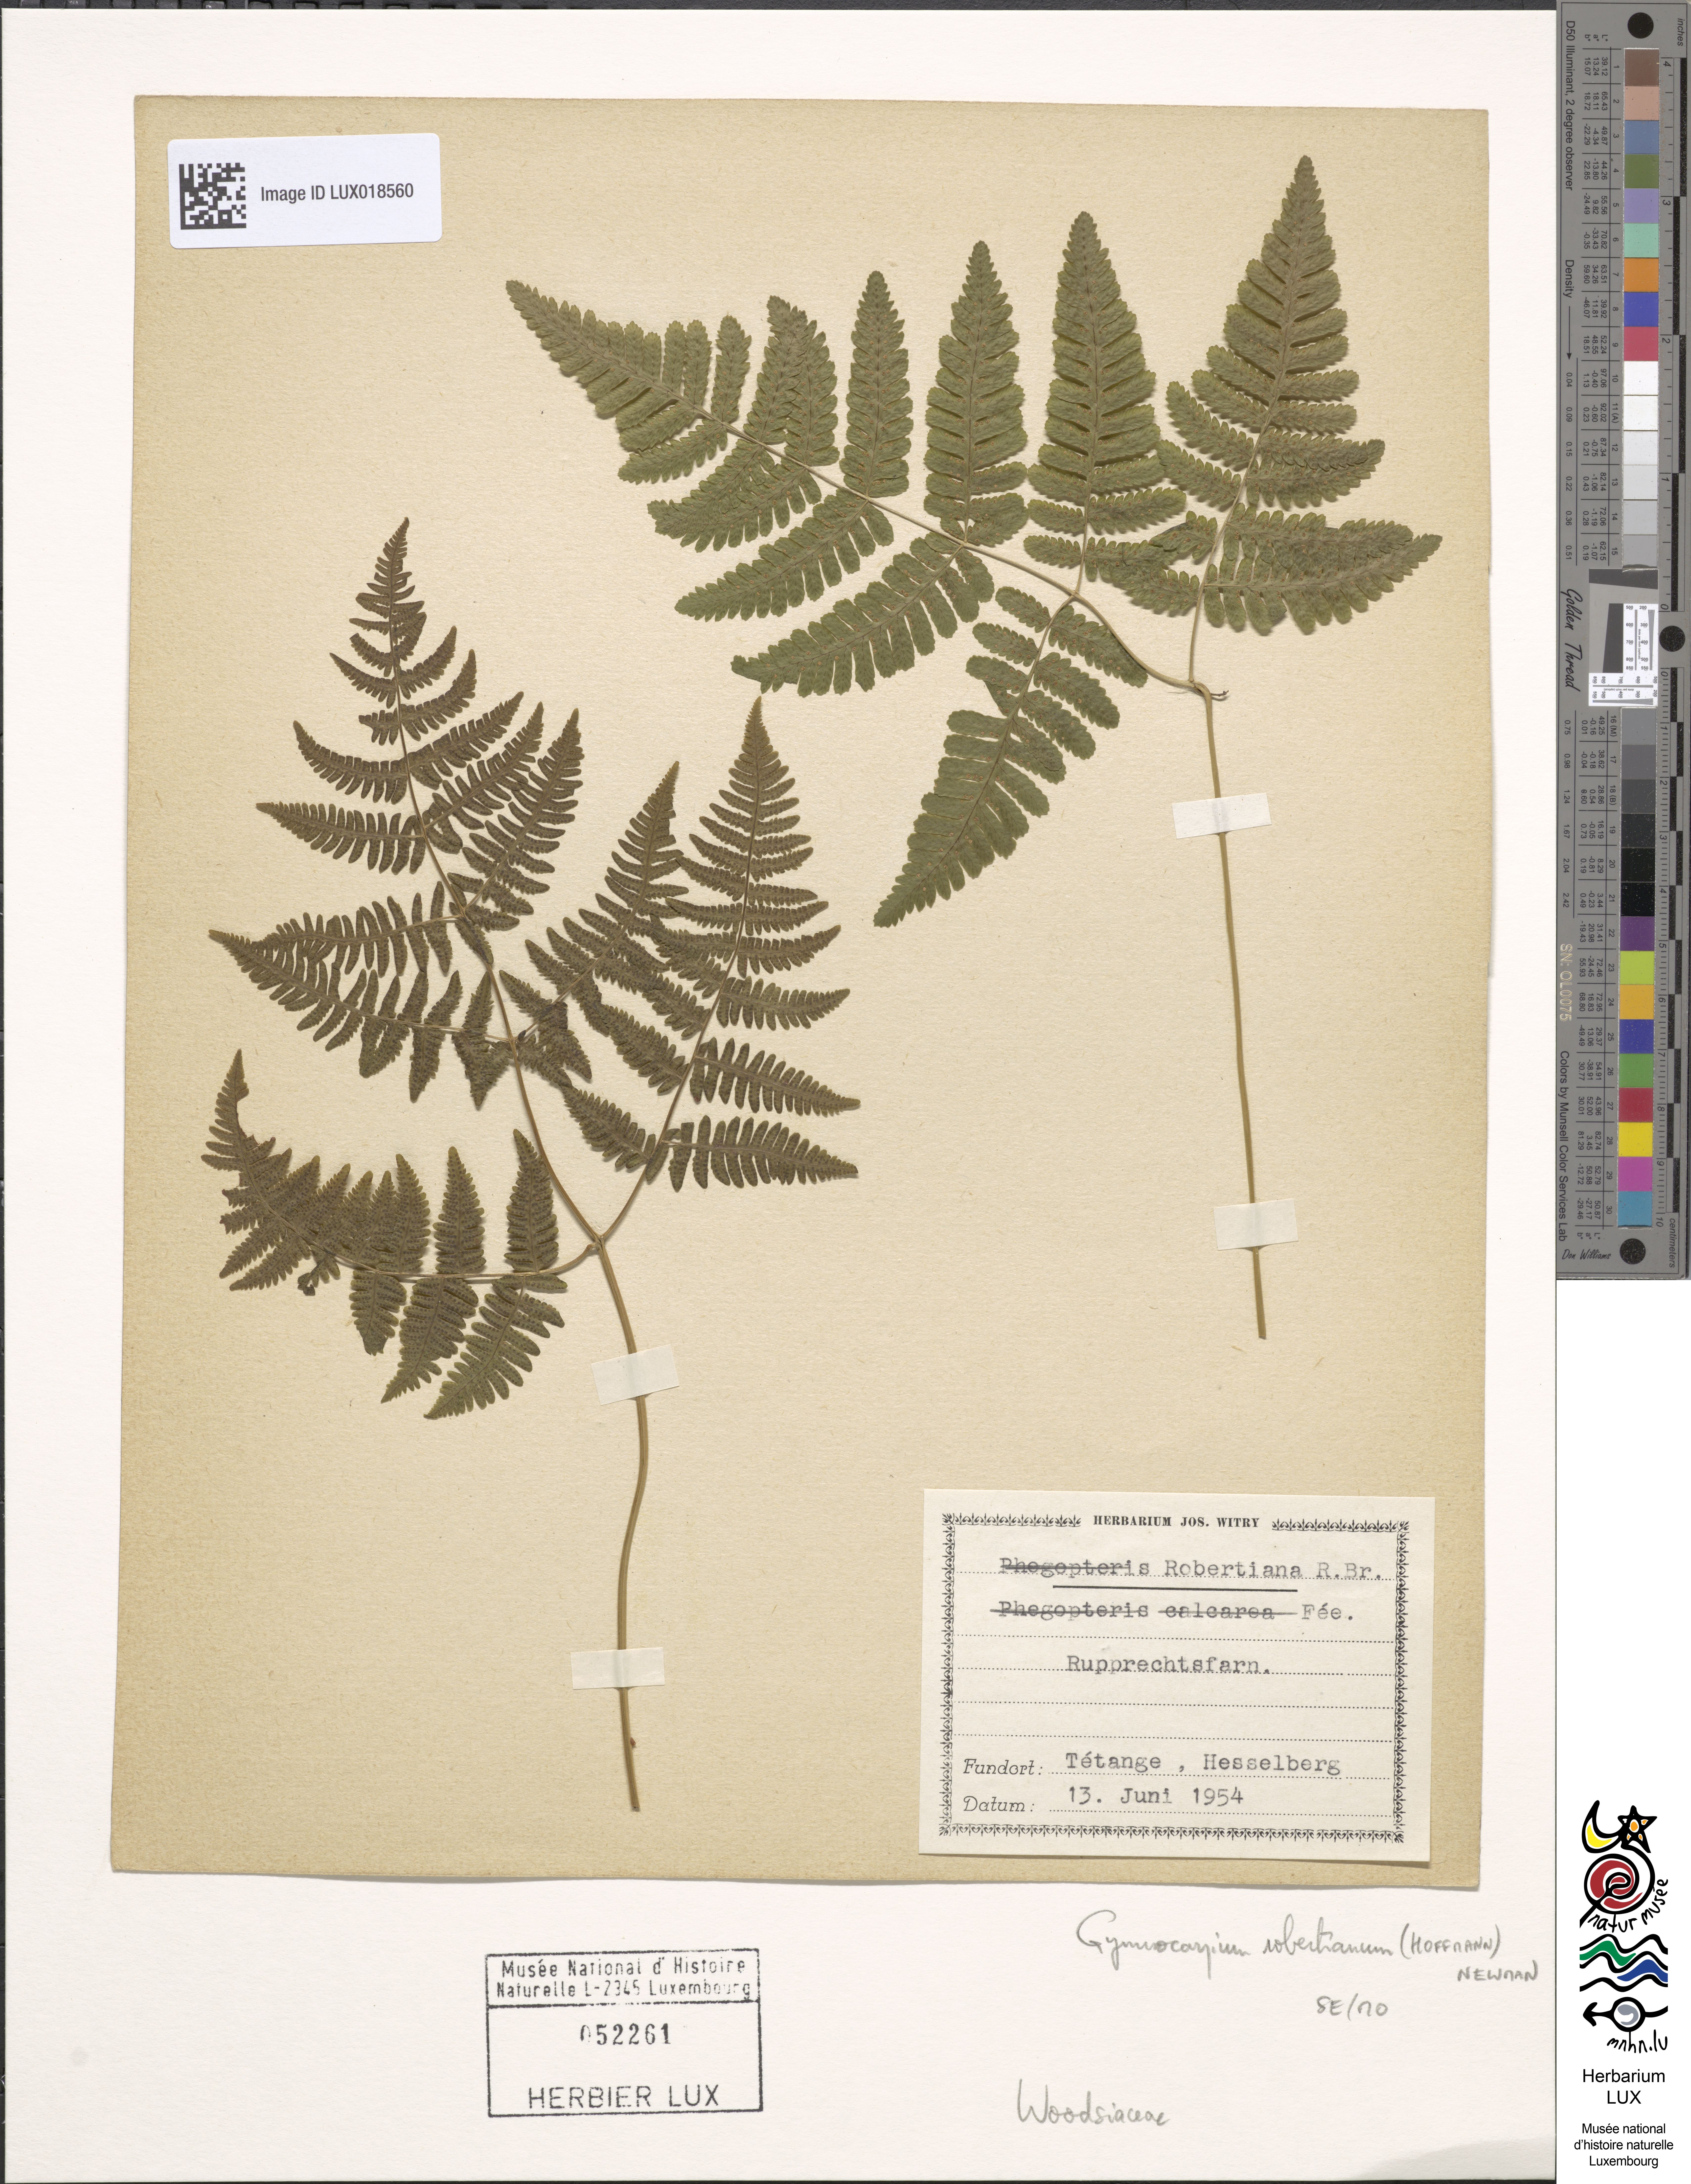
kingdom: Plantae
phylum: Tracheophyta
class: Polypodiopsida
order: Polypodiales
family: Cystopteridaceae
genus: Gymnocarpium
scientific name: Gymnocarpium robertianum
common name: Limestone fern
